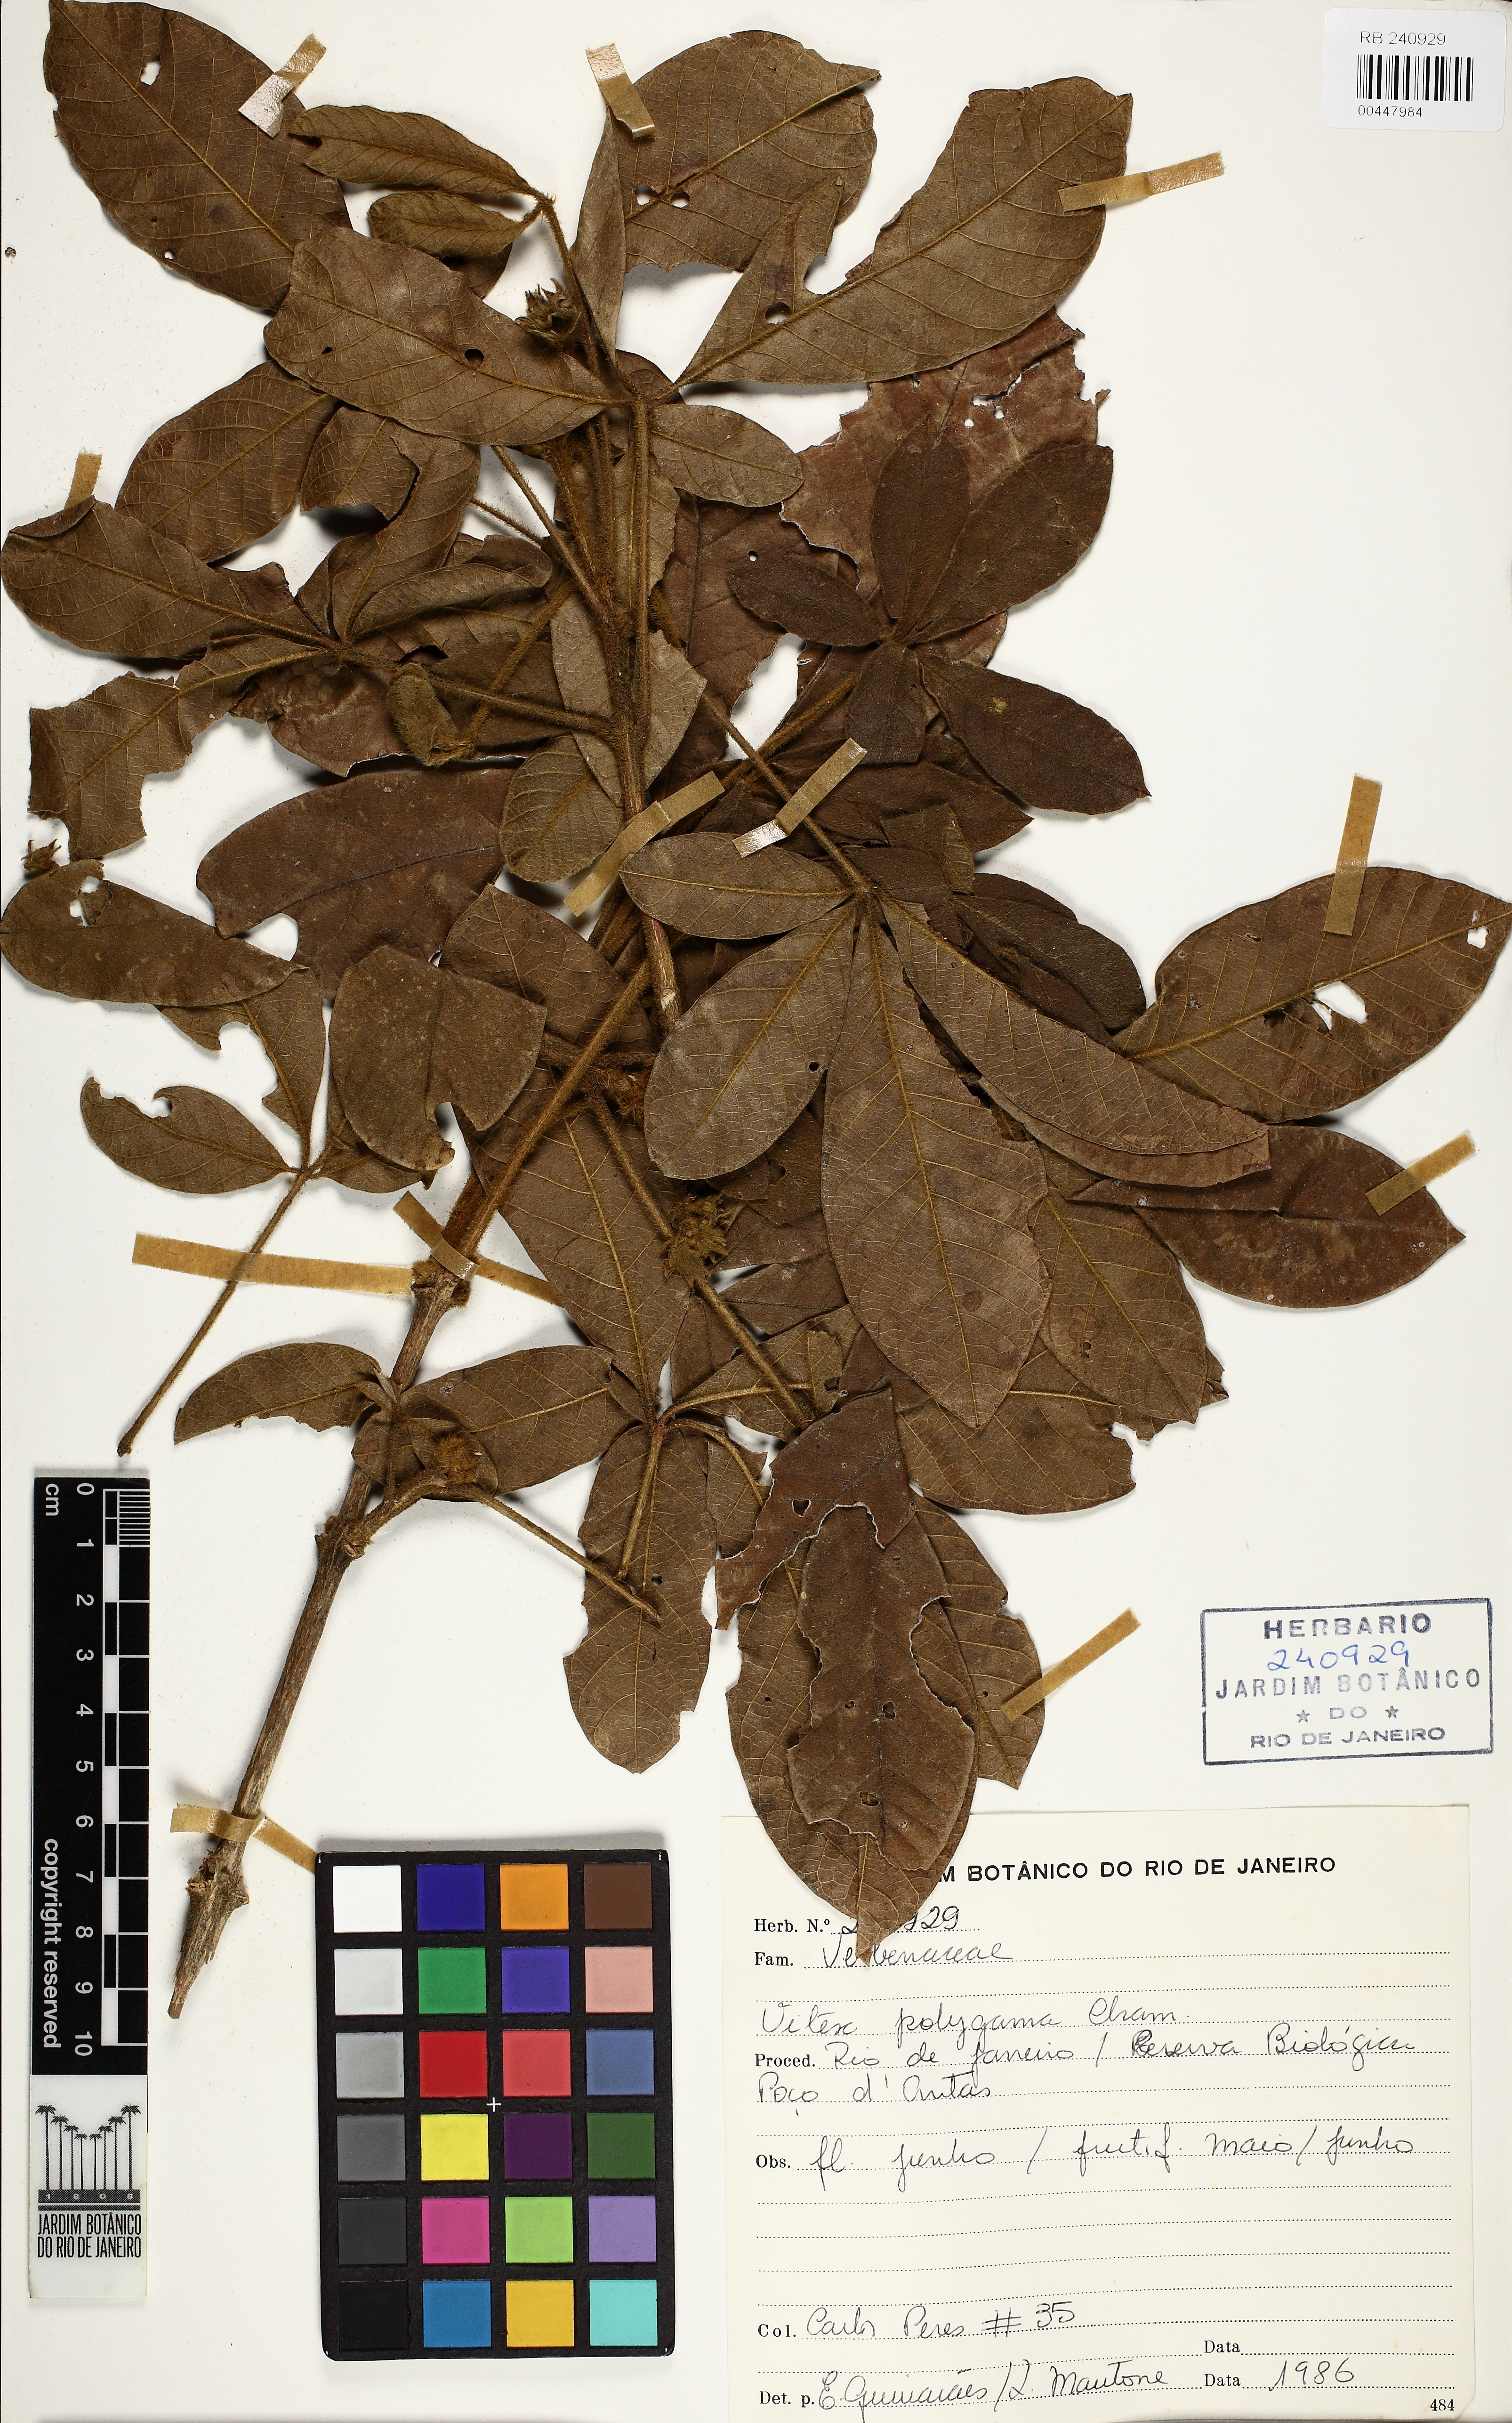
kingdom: Plantae
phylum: Tracheophyta
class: Magnoliopsida
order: Lamiales
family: Lamiaceae
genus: Vitex
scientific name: Vitex polygama
